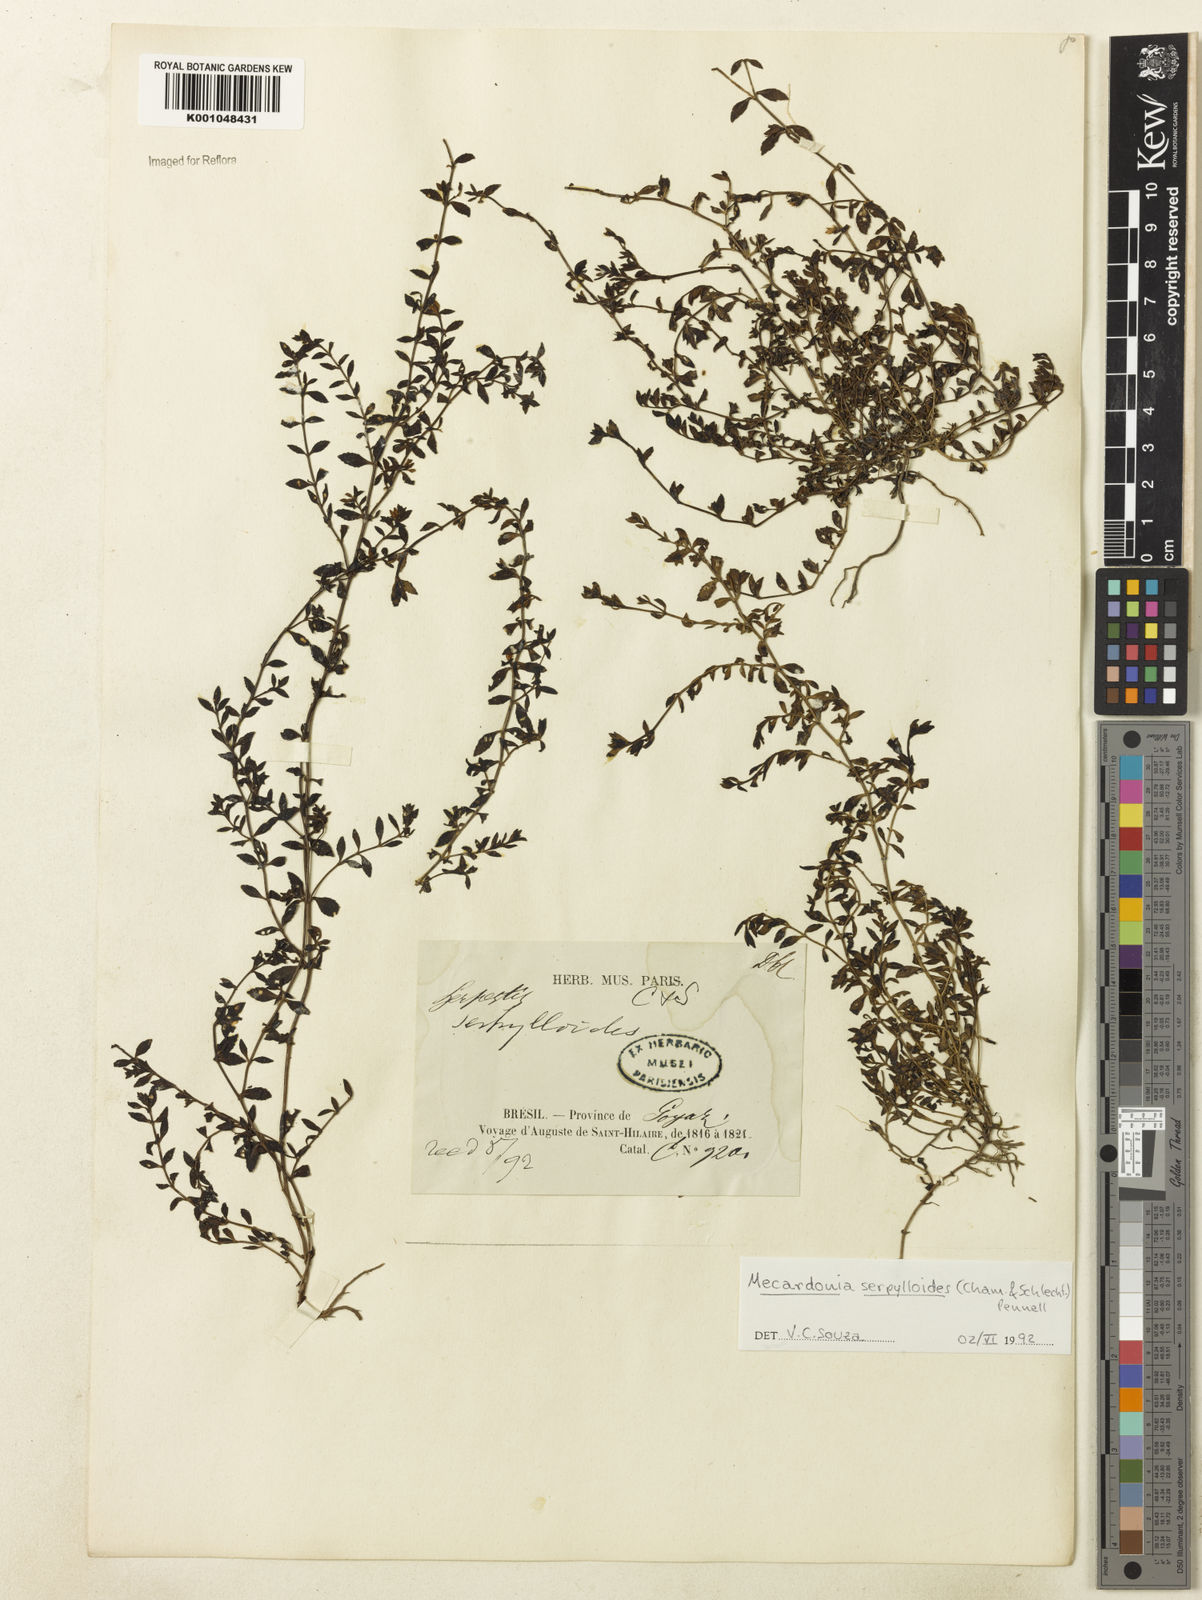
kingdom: Plantae
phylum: Tracheophyta
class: Magnoliopsida
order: Lamiales
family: Plantaginaceae
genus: Mecardonia
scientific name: Mecardonia serpylloides
